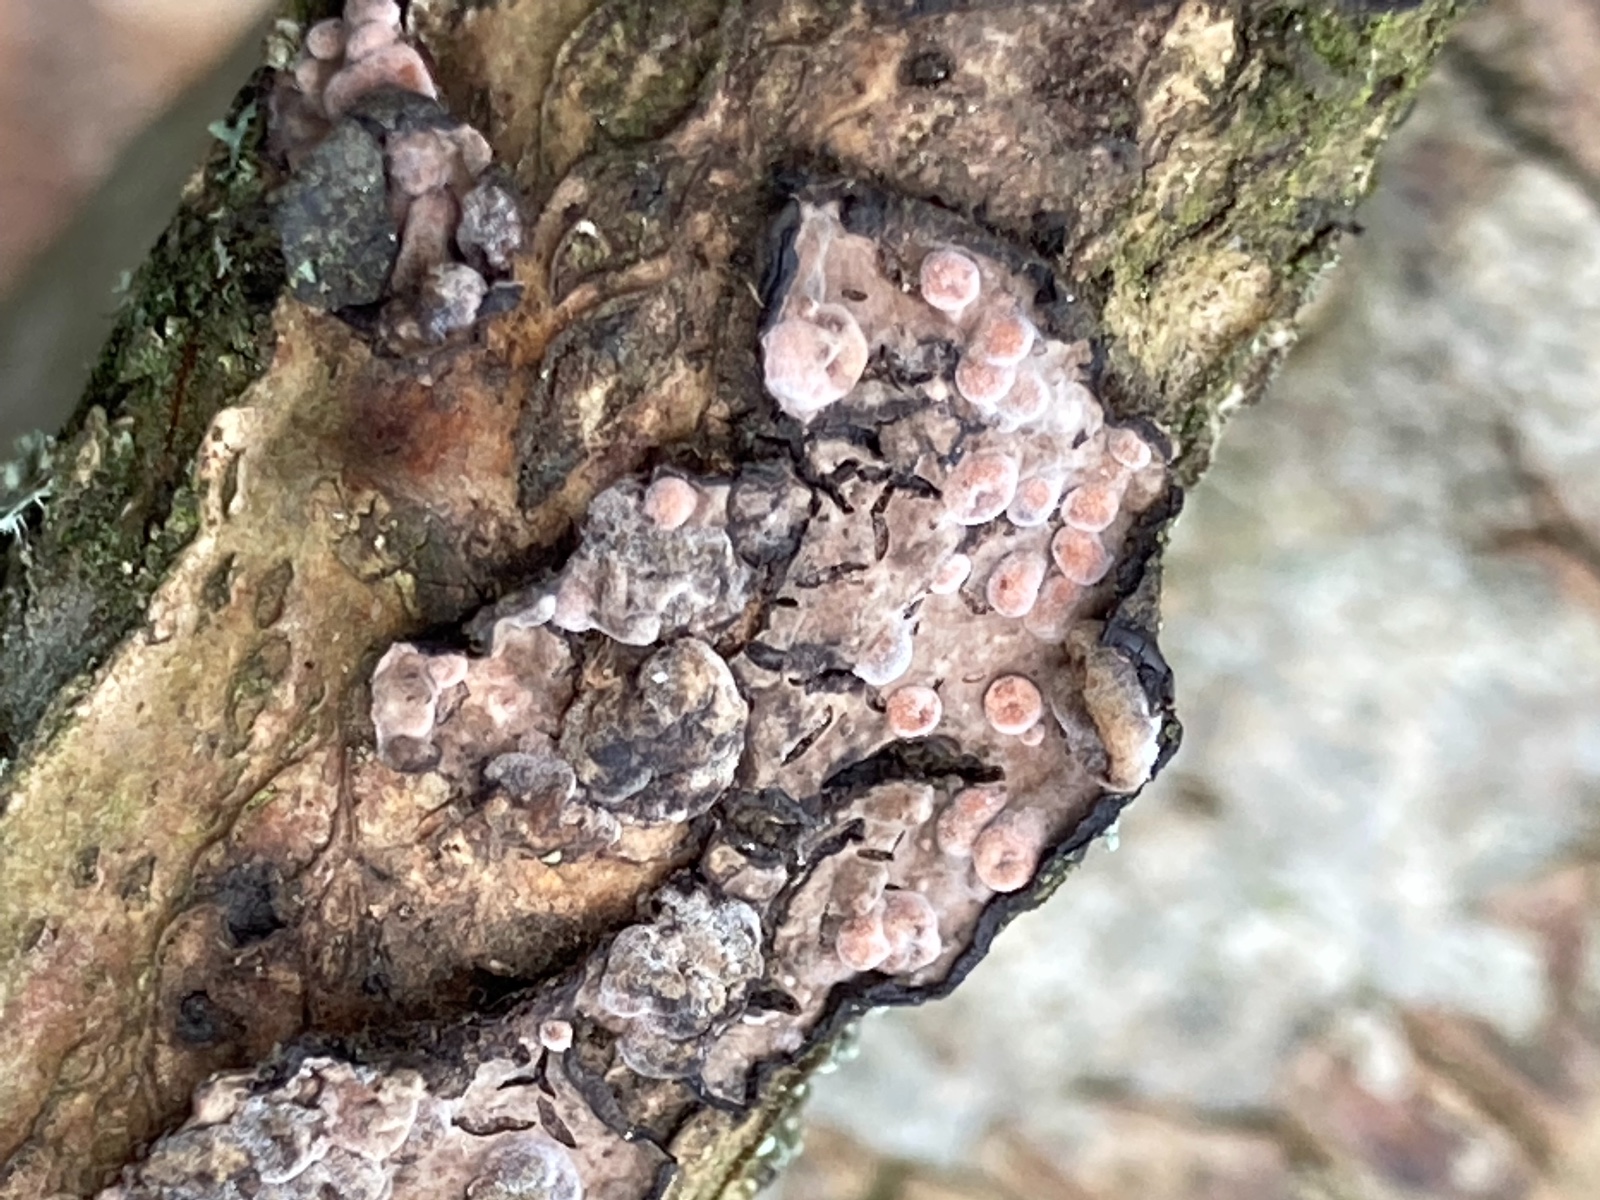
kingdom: Fungi
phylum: Basidiomycota
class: Pucciniomycetes
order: Platygloeales
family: Platygloeaceae
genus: Platygloea
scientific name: Platygloea
